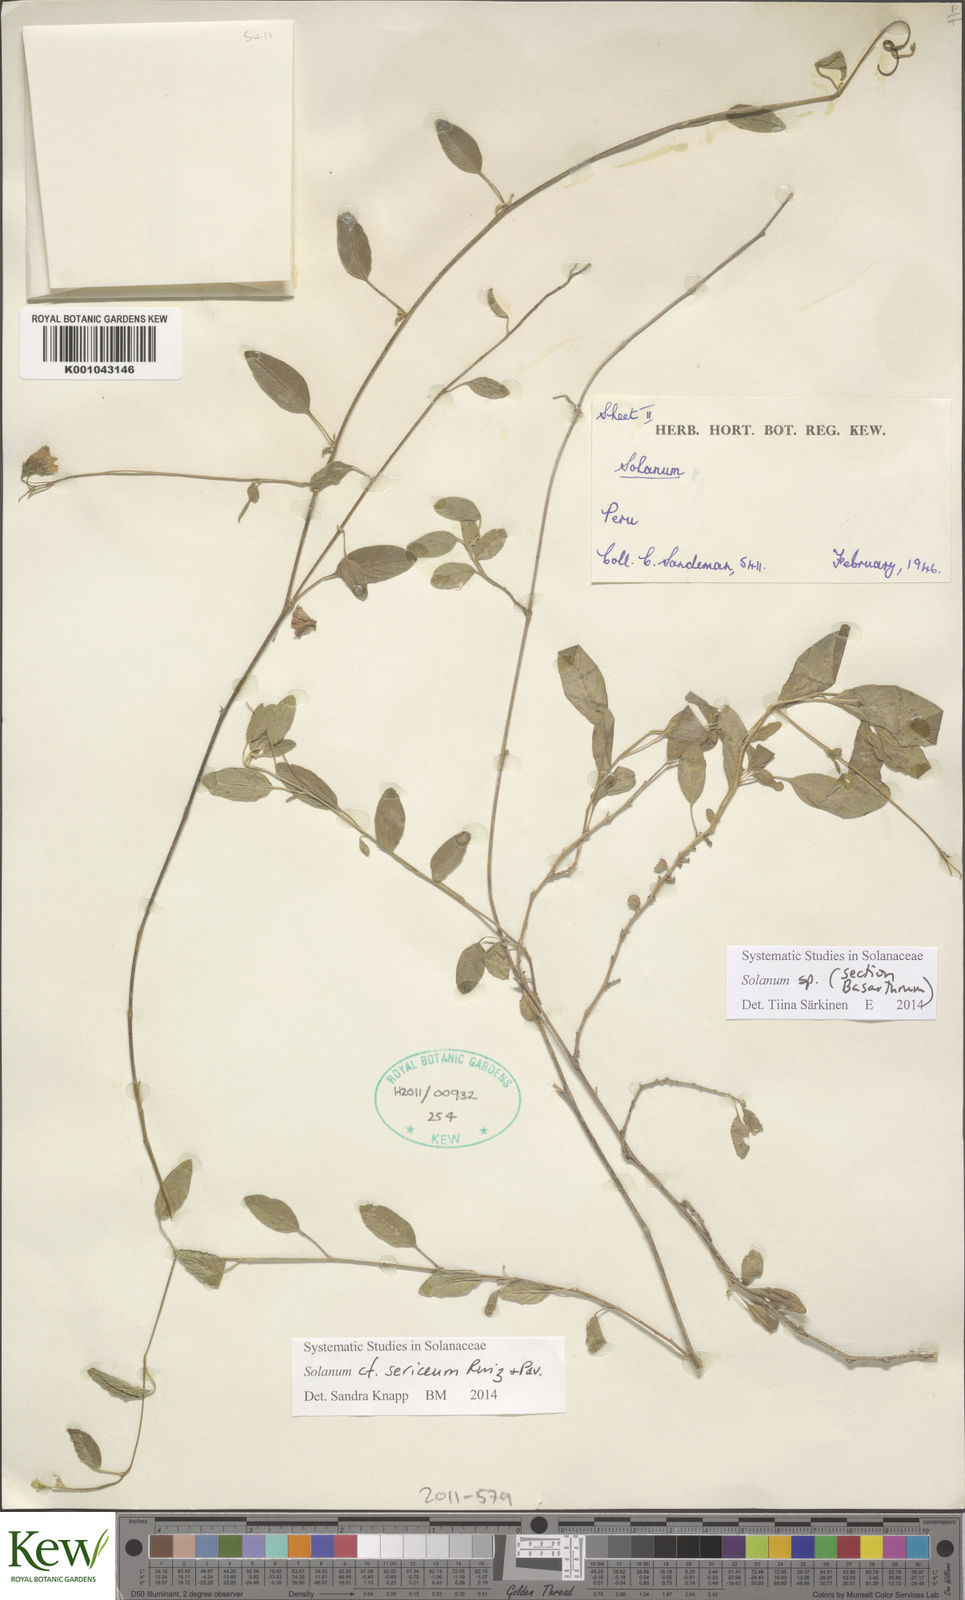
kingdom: Plantae
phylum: Tracheophyta
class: Magnoliopsida
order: Solanales
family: Solanaceae
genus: Solanum
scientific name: Solanum sericeum
